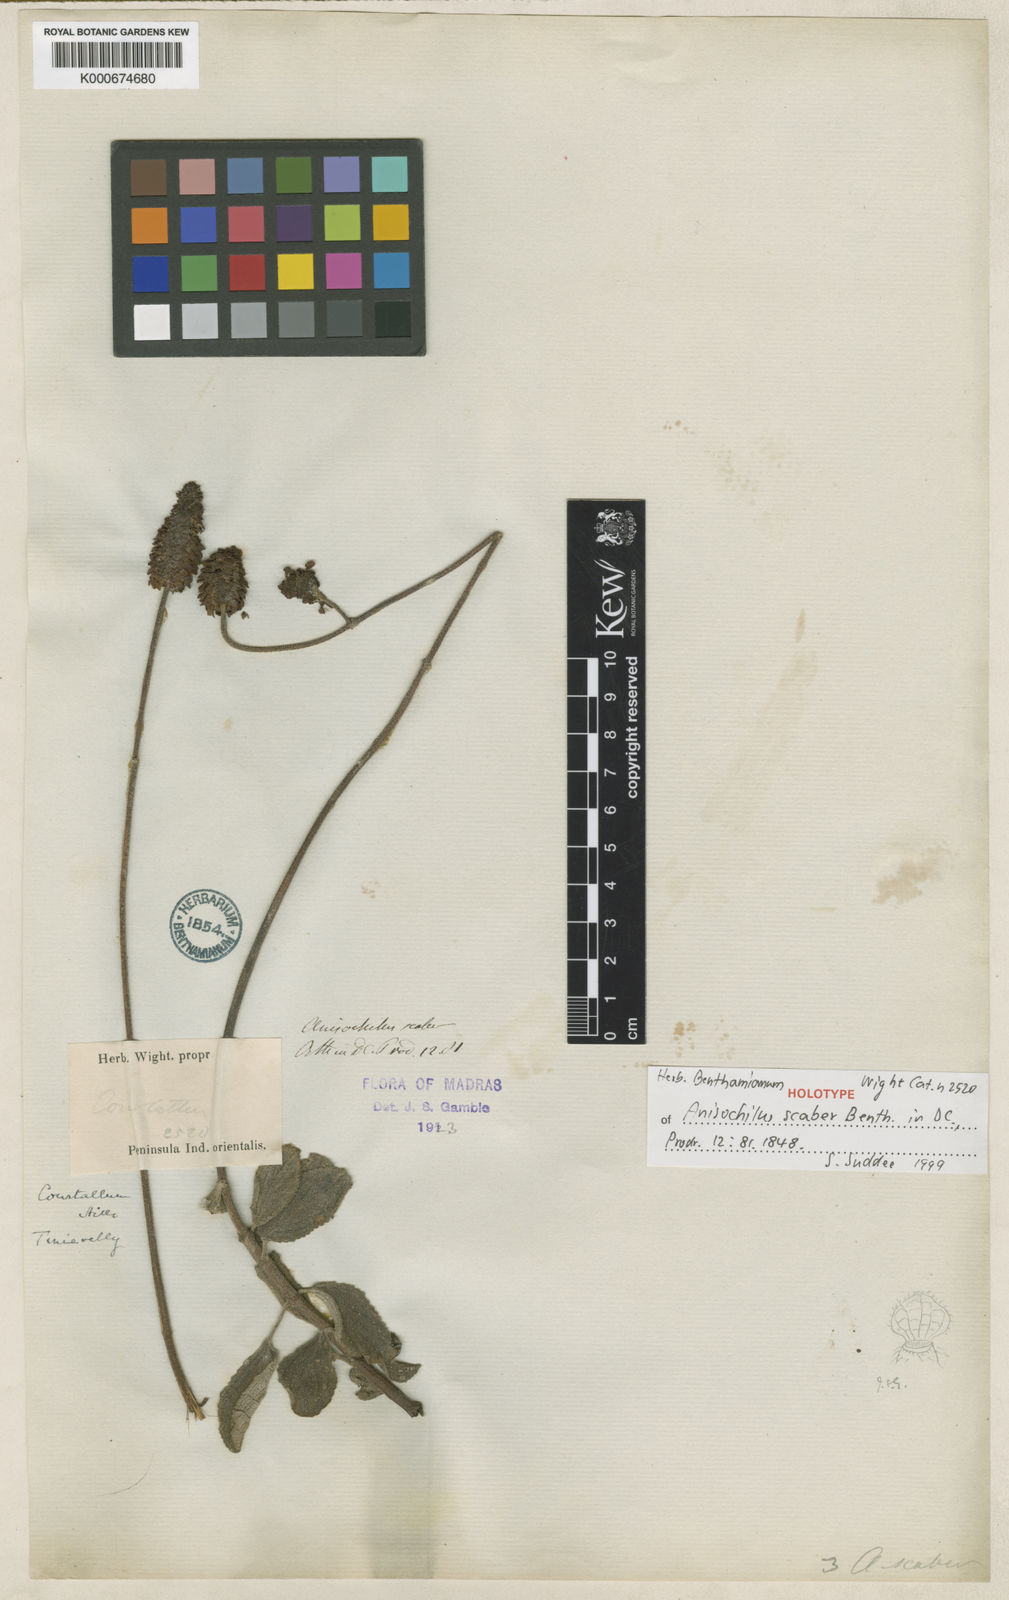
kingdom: Plantae
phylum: Tracheophyta
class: Magnoliopsida
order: Lamiales
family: Lamiaceae
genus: Coleus
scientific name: Coleus scaber
